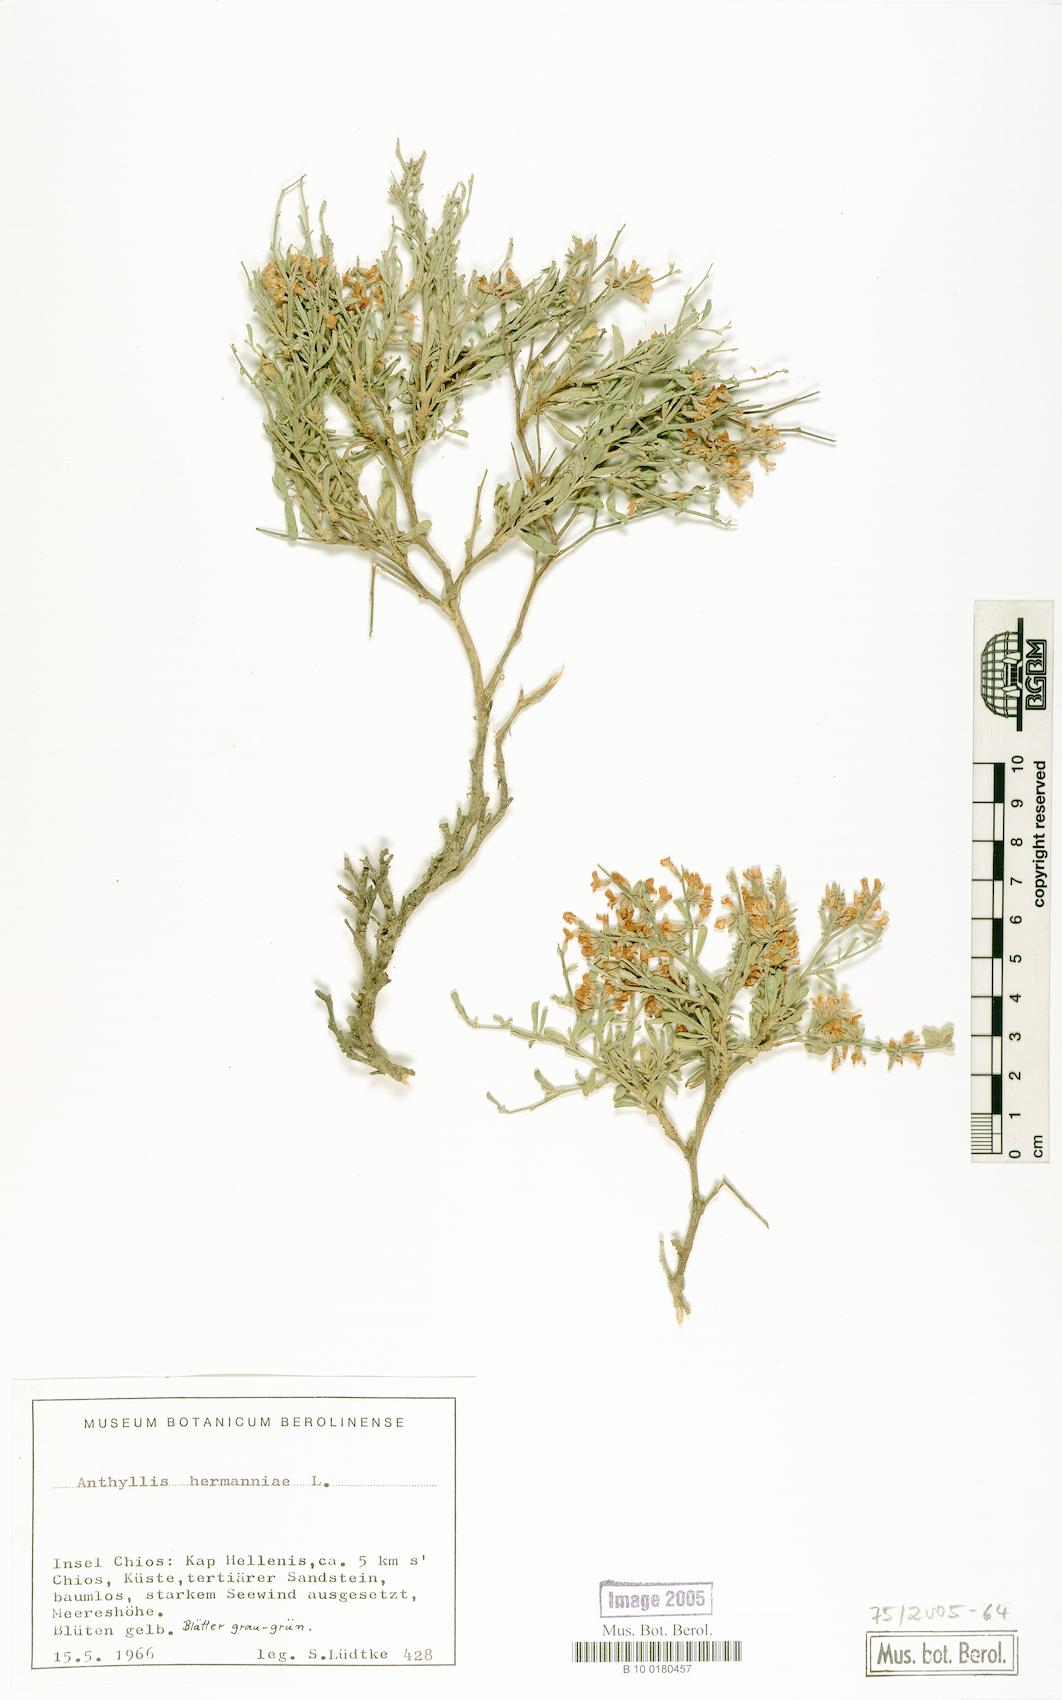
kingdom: Plantae
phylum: Tracheophyta
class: Magnoliopsida
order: Fabales
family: Fabaceae
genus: Anthyllis
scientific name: Anthyllis hermanniae
